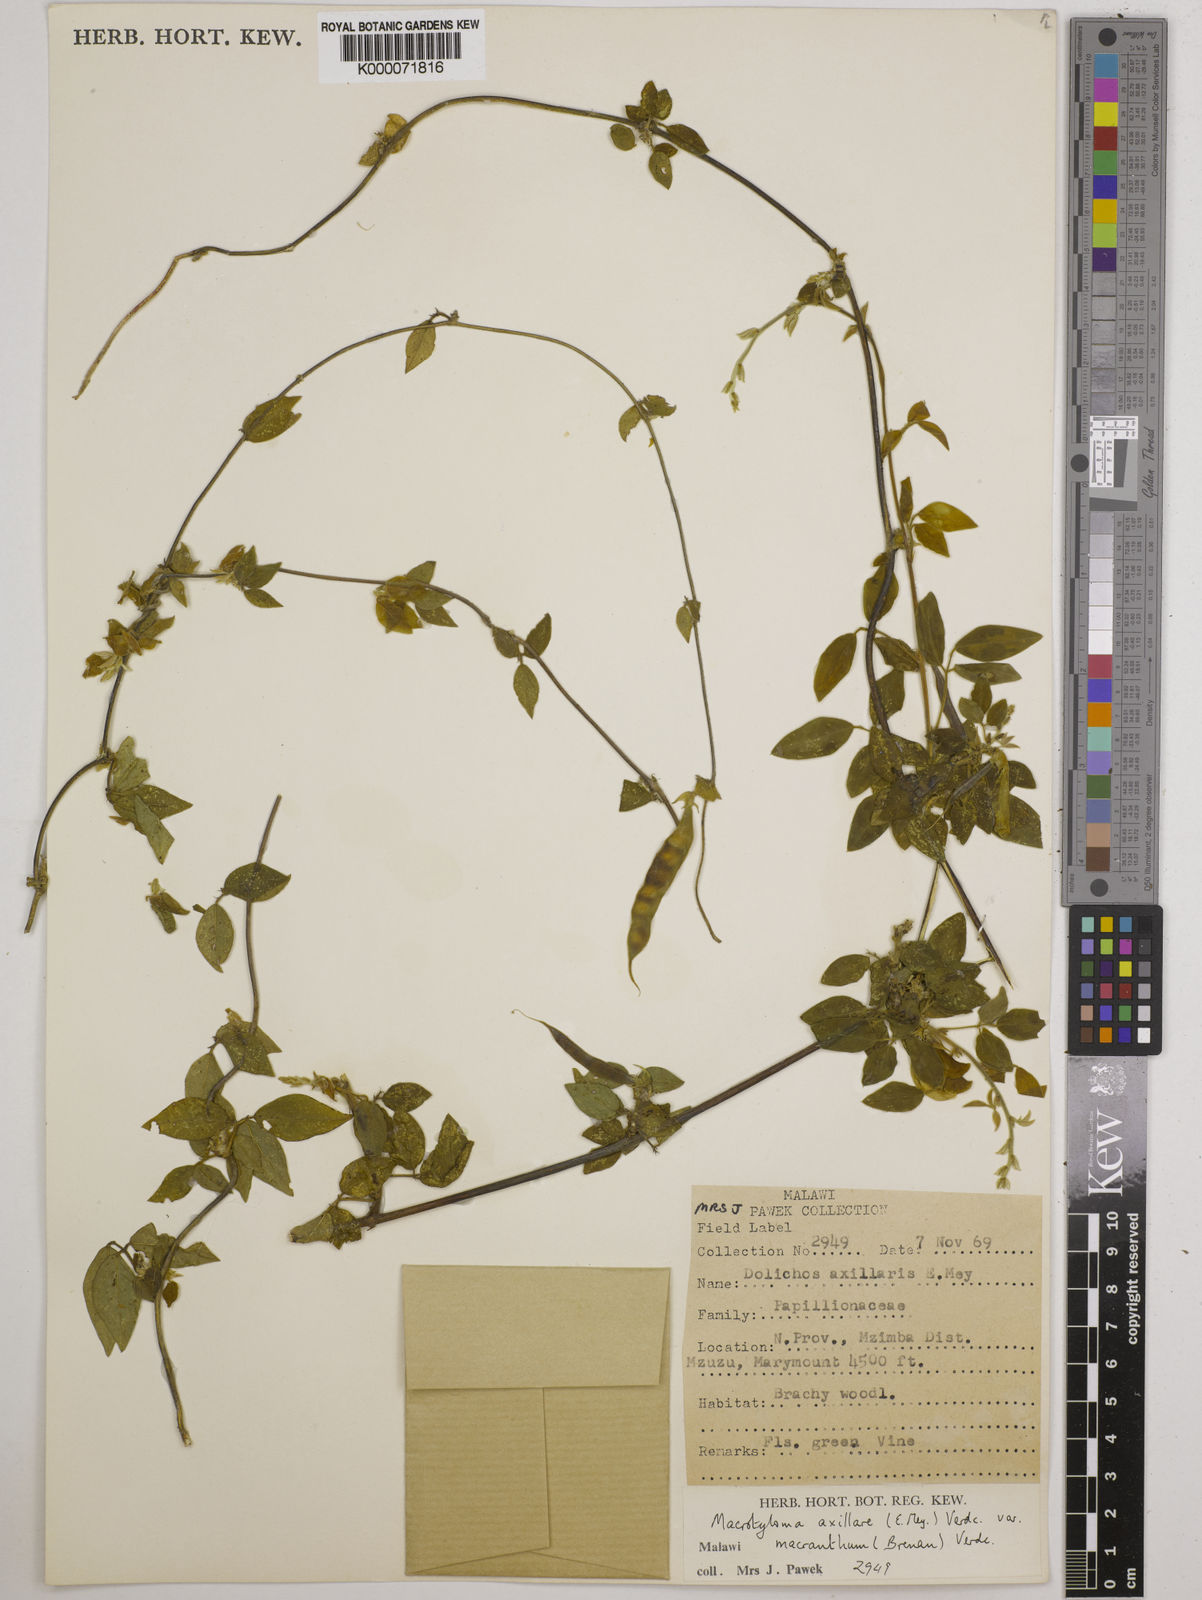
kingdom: Plantae
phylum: Tracheophyta
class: Magnoliopsida
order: Fabales
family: Fabaceae
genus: Macrotyloma
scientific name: Macrotyloma axillare
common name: Perennial horsegram
